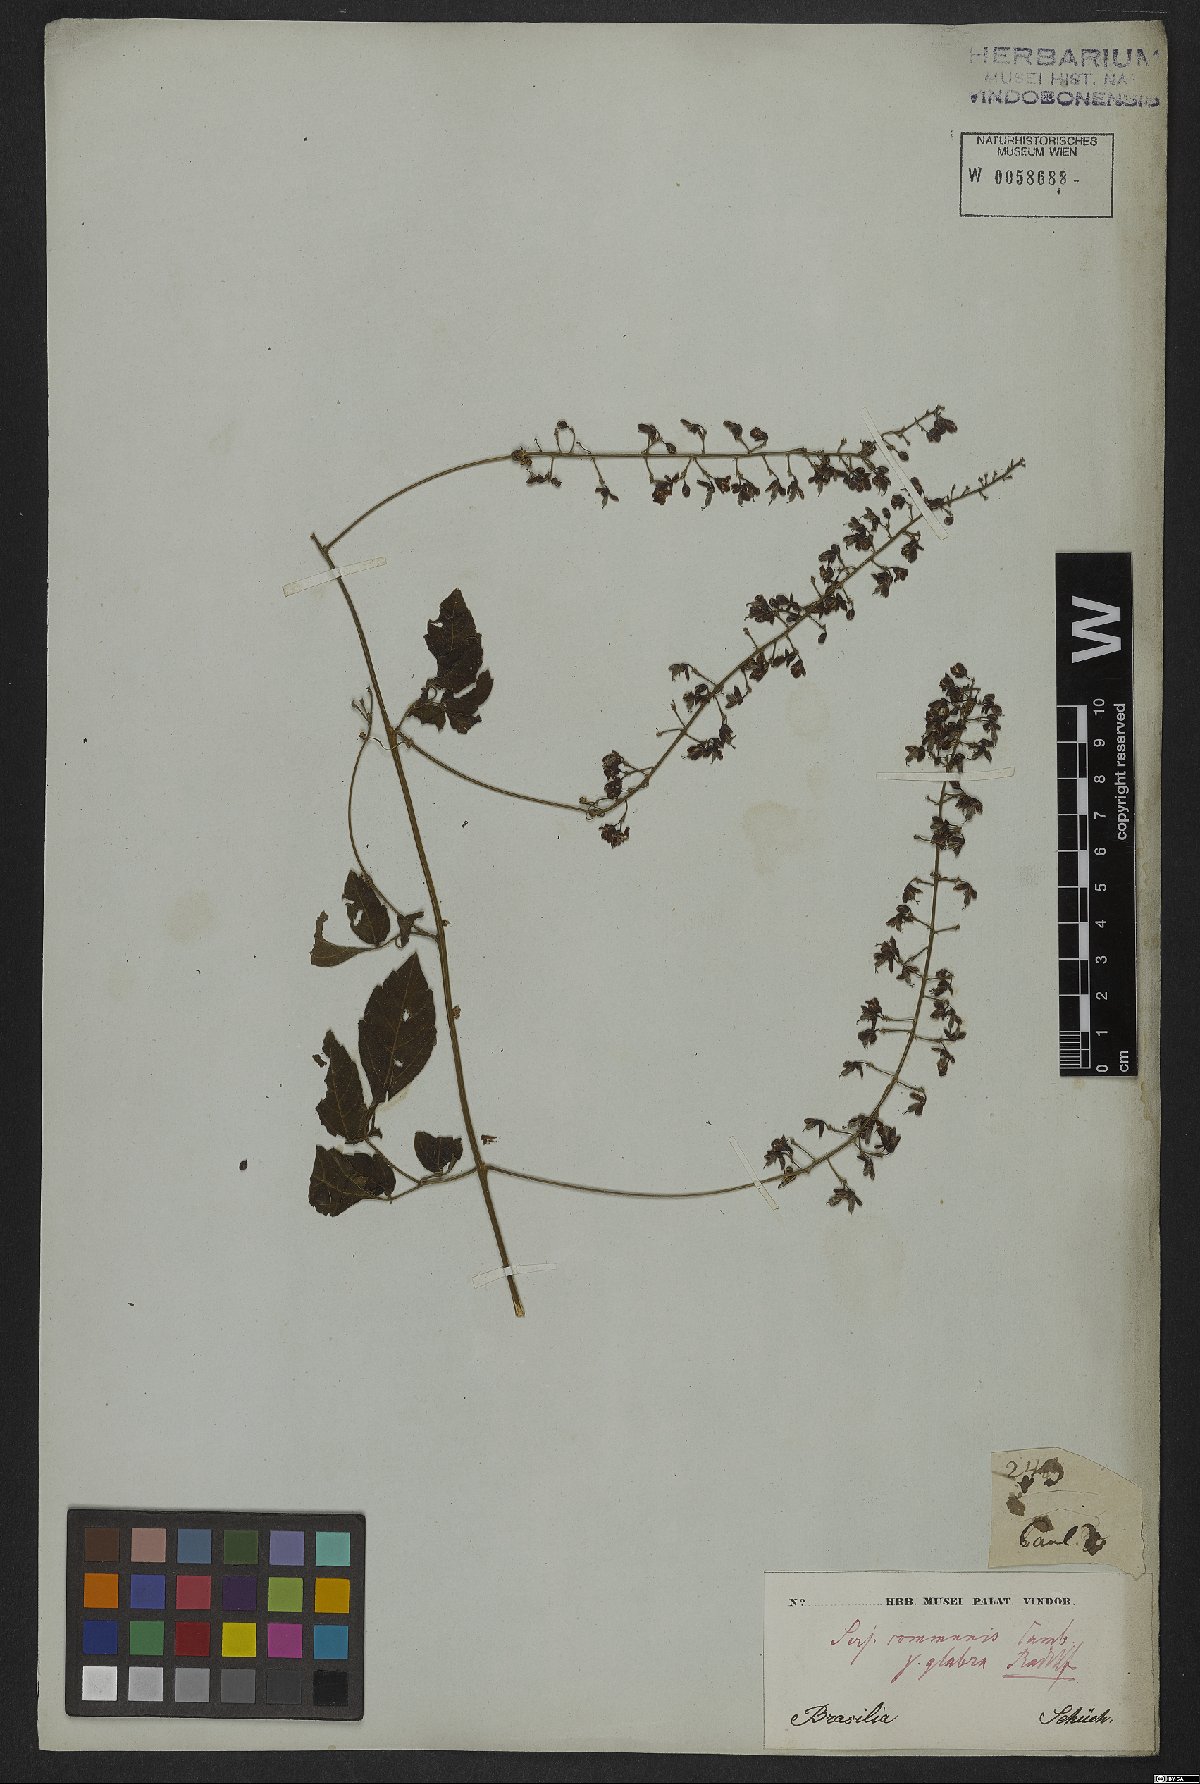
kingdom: Plantae
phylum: Tracheophyta
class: Magnoliopsida
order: Sapindales
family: Sapindaceae
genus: Serjania
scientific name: Serjania communis
